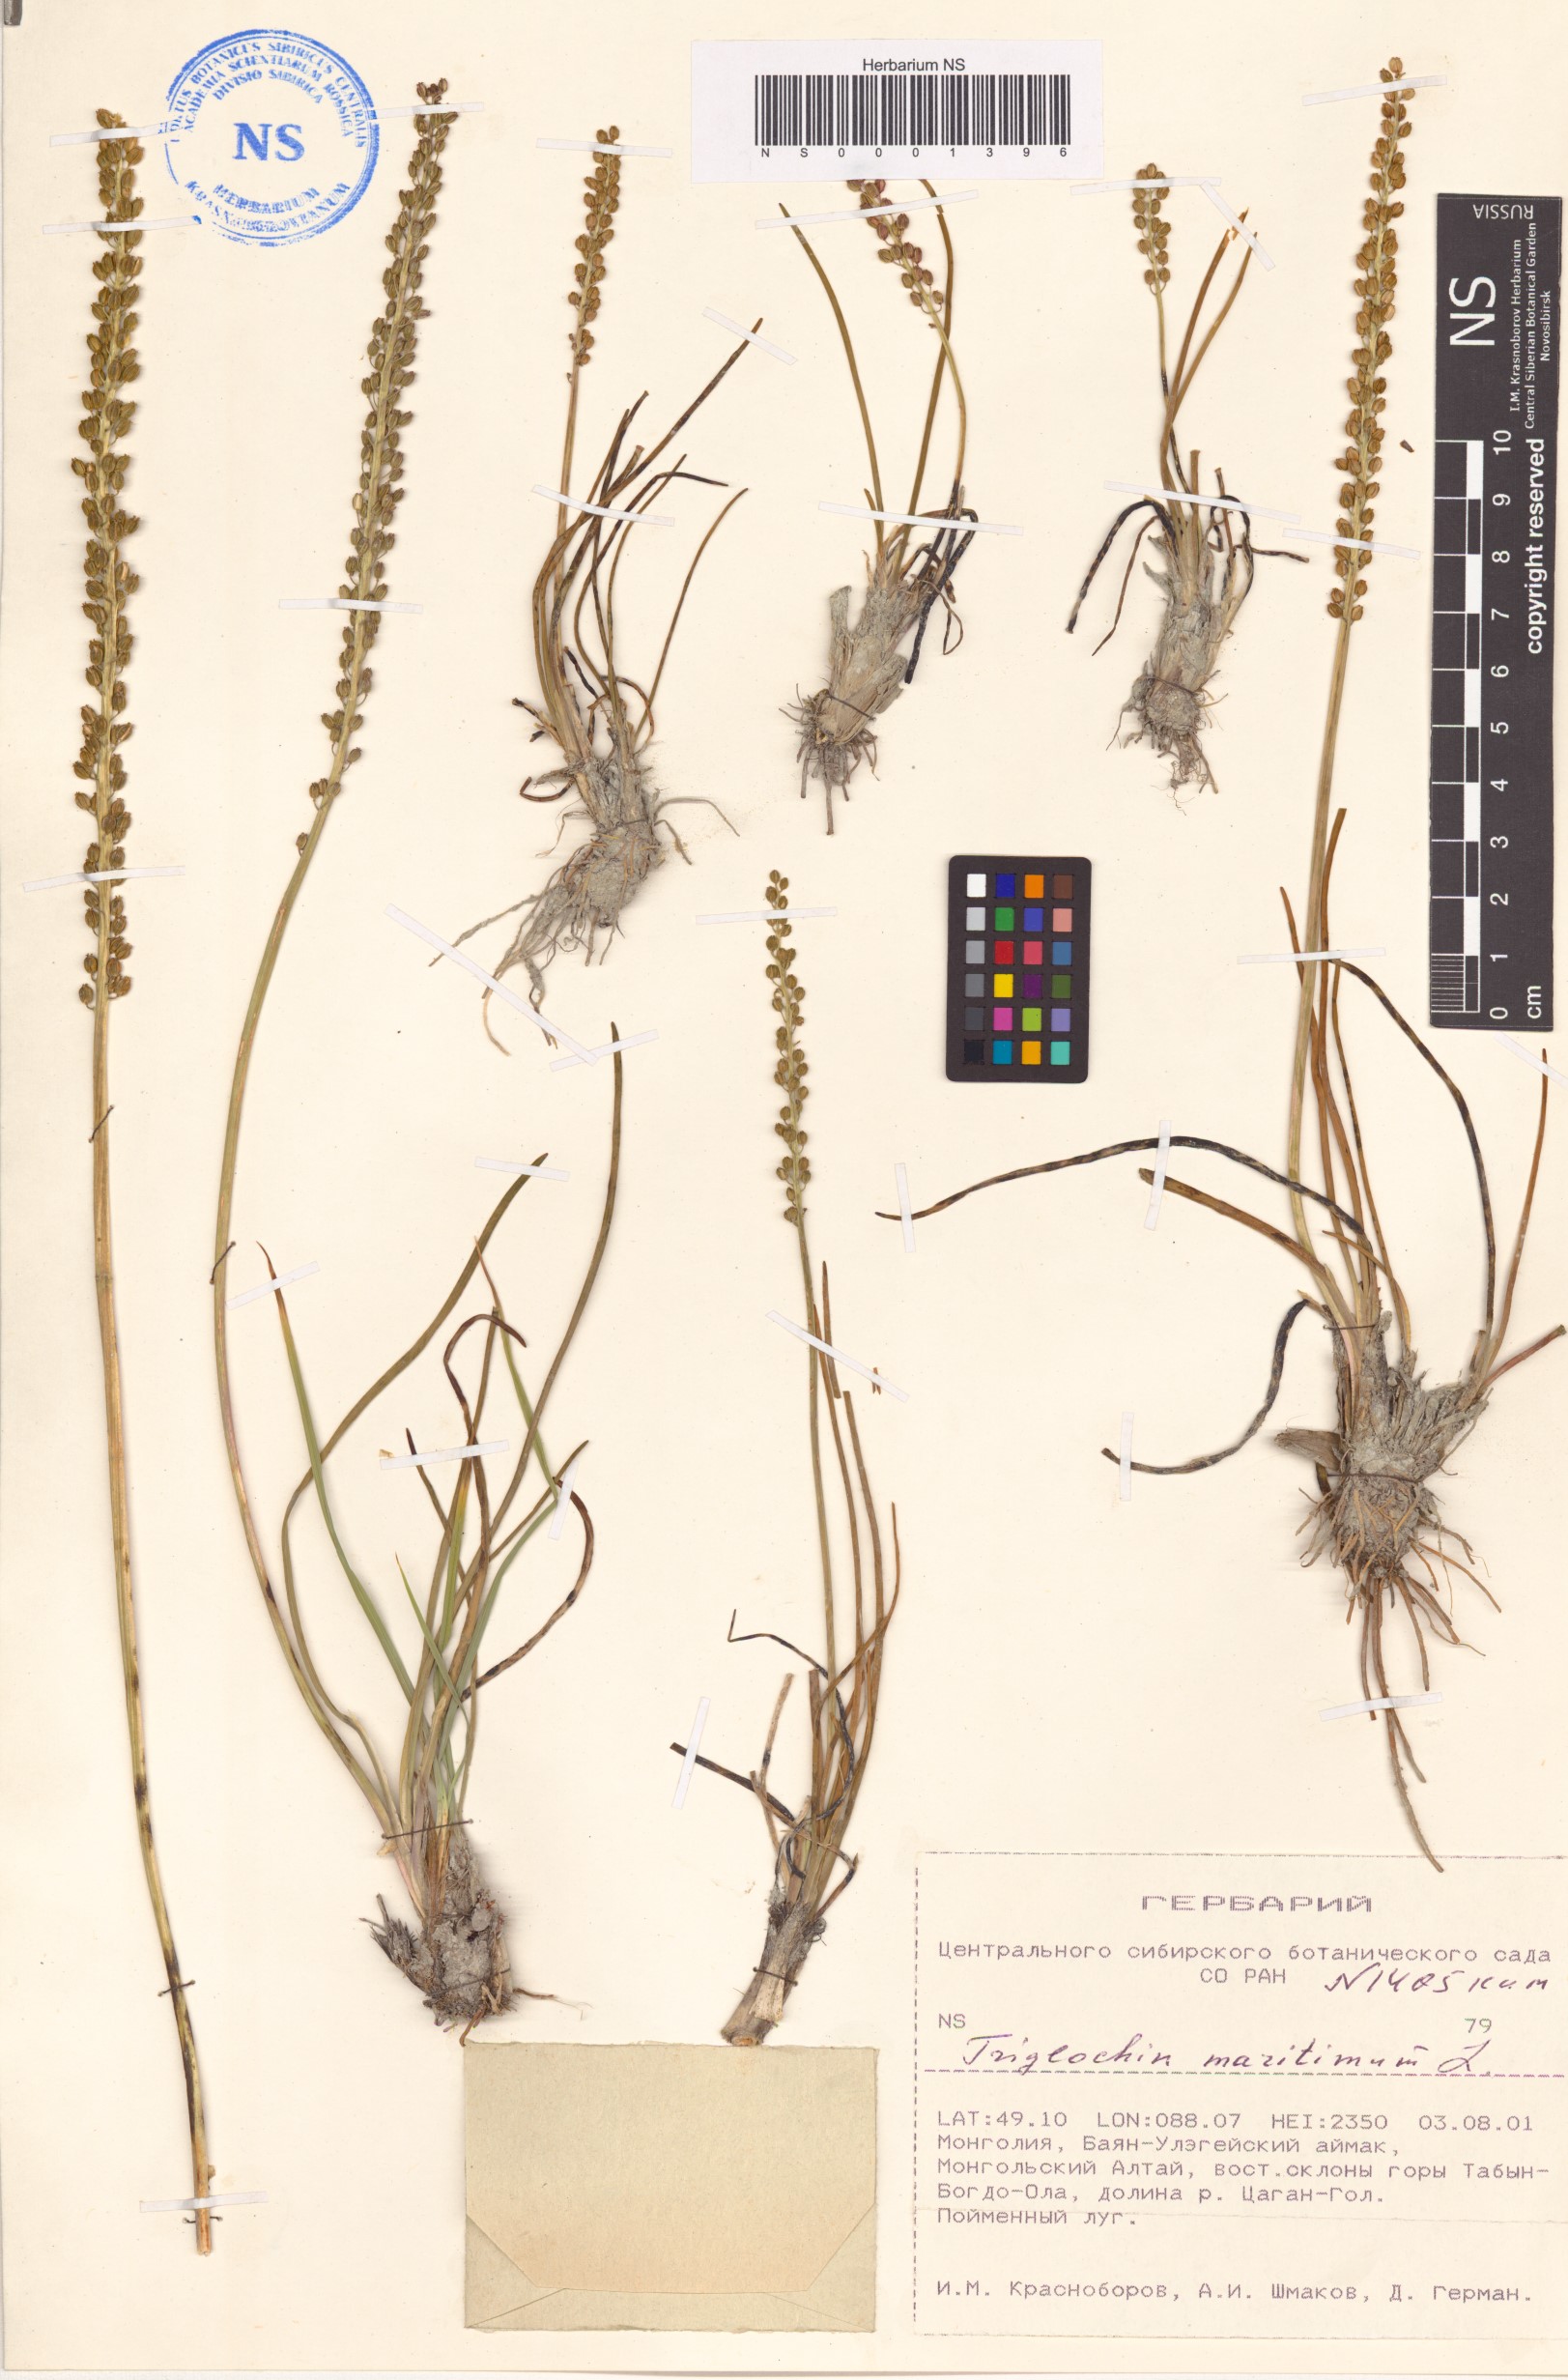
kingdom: Plantae
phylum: Tracheophyta
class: Liliopsida
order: Alismatales
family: Juncaginaceae
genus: Triglochin
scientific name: Triglochin maritima
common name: Sea arrowgrass
